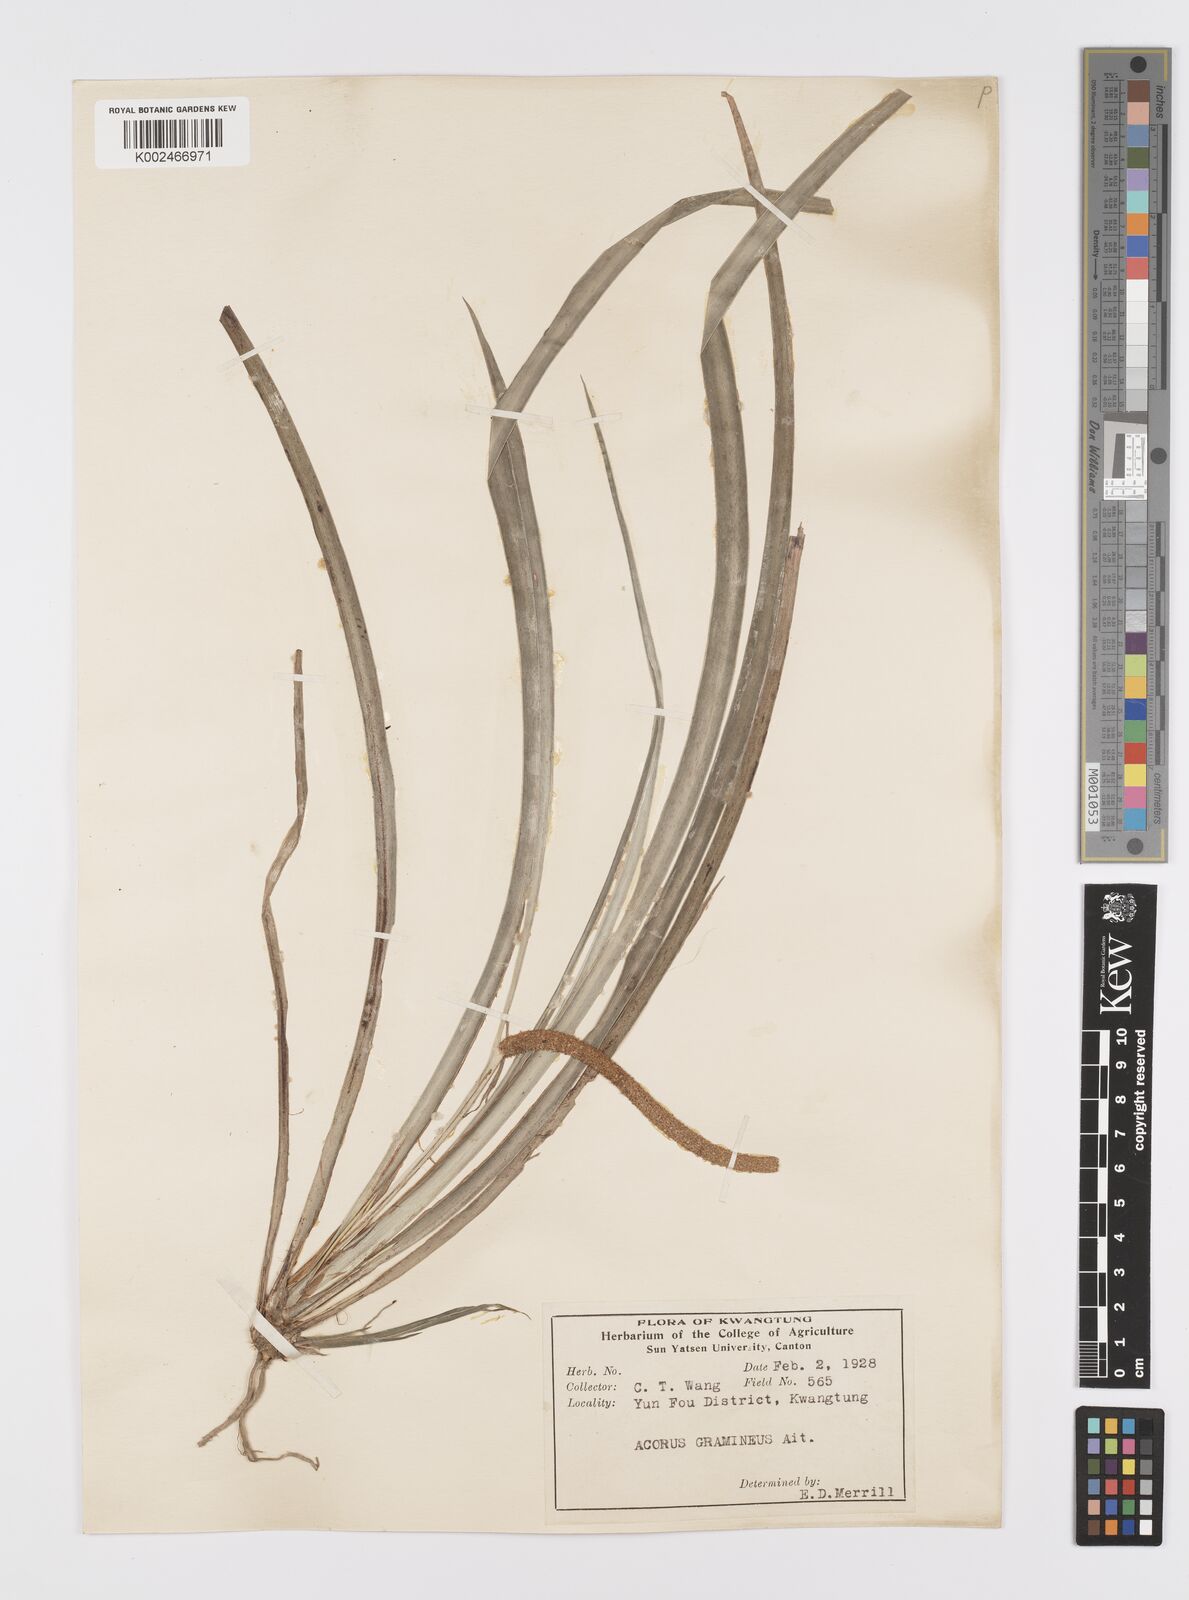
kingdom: Plantae
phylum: Tracheophyta
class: Liliopsida
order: Acorales
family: Acoraceae
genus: Acorus
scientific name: Acorus gramineus
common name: Slender sweet-flag
